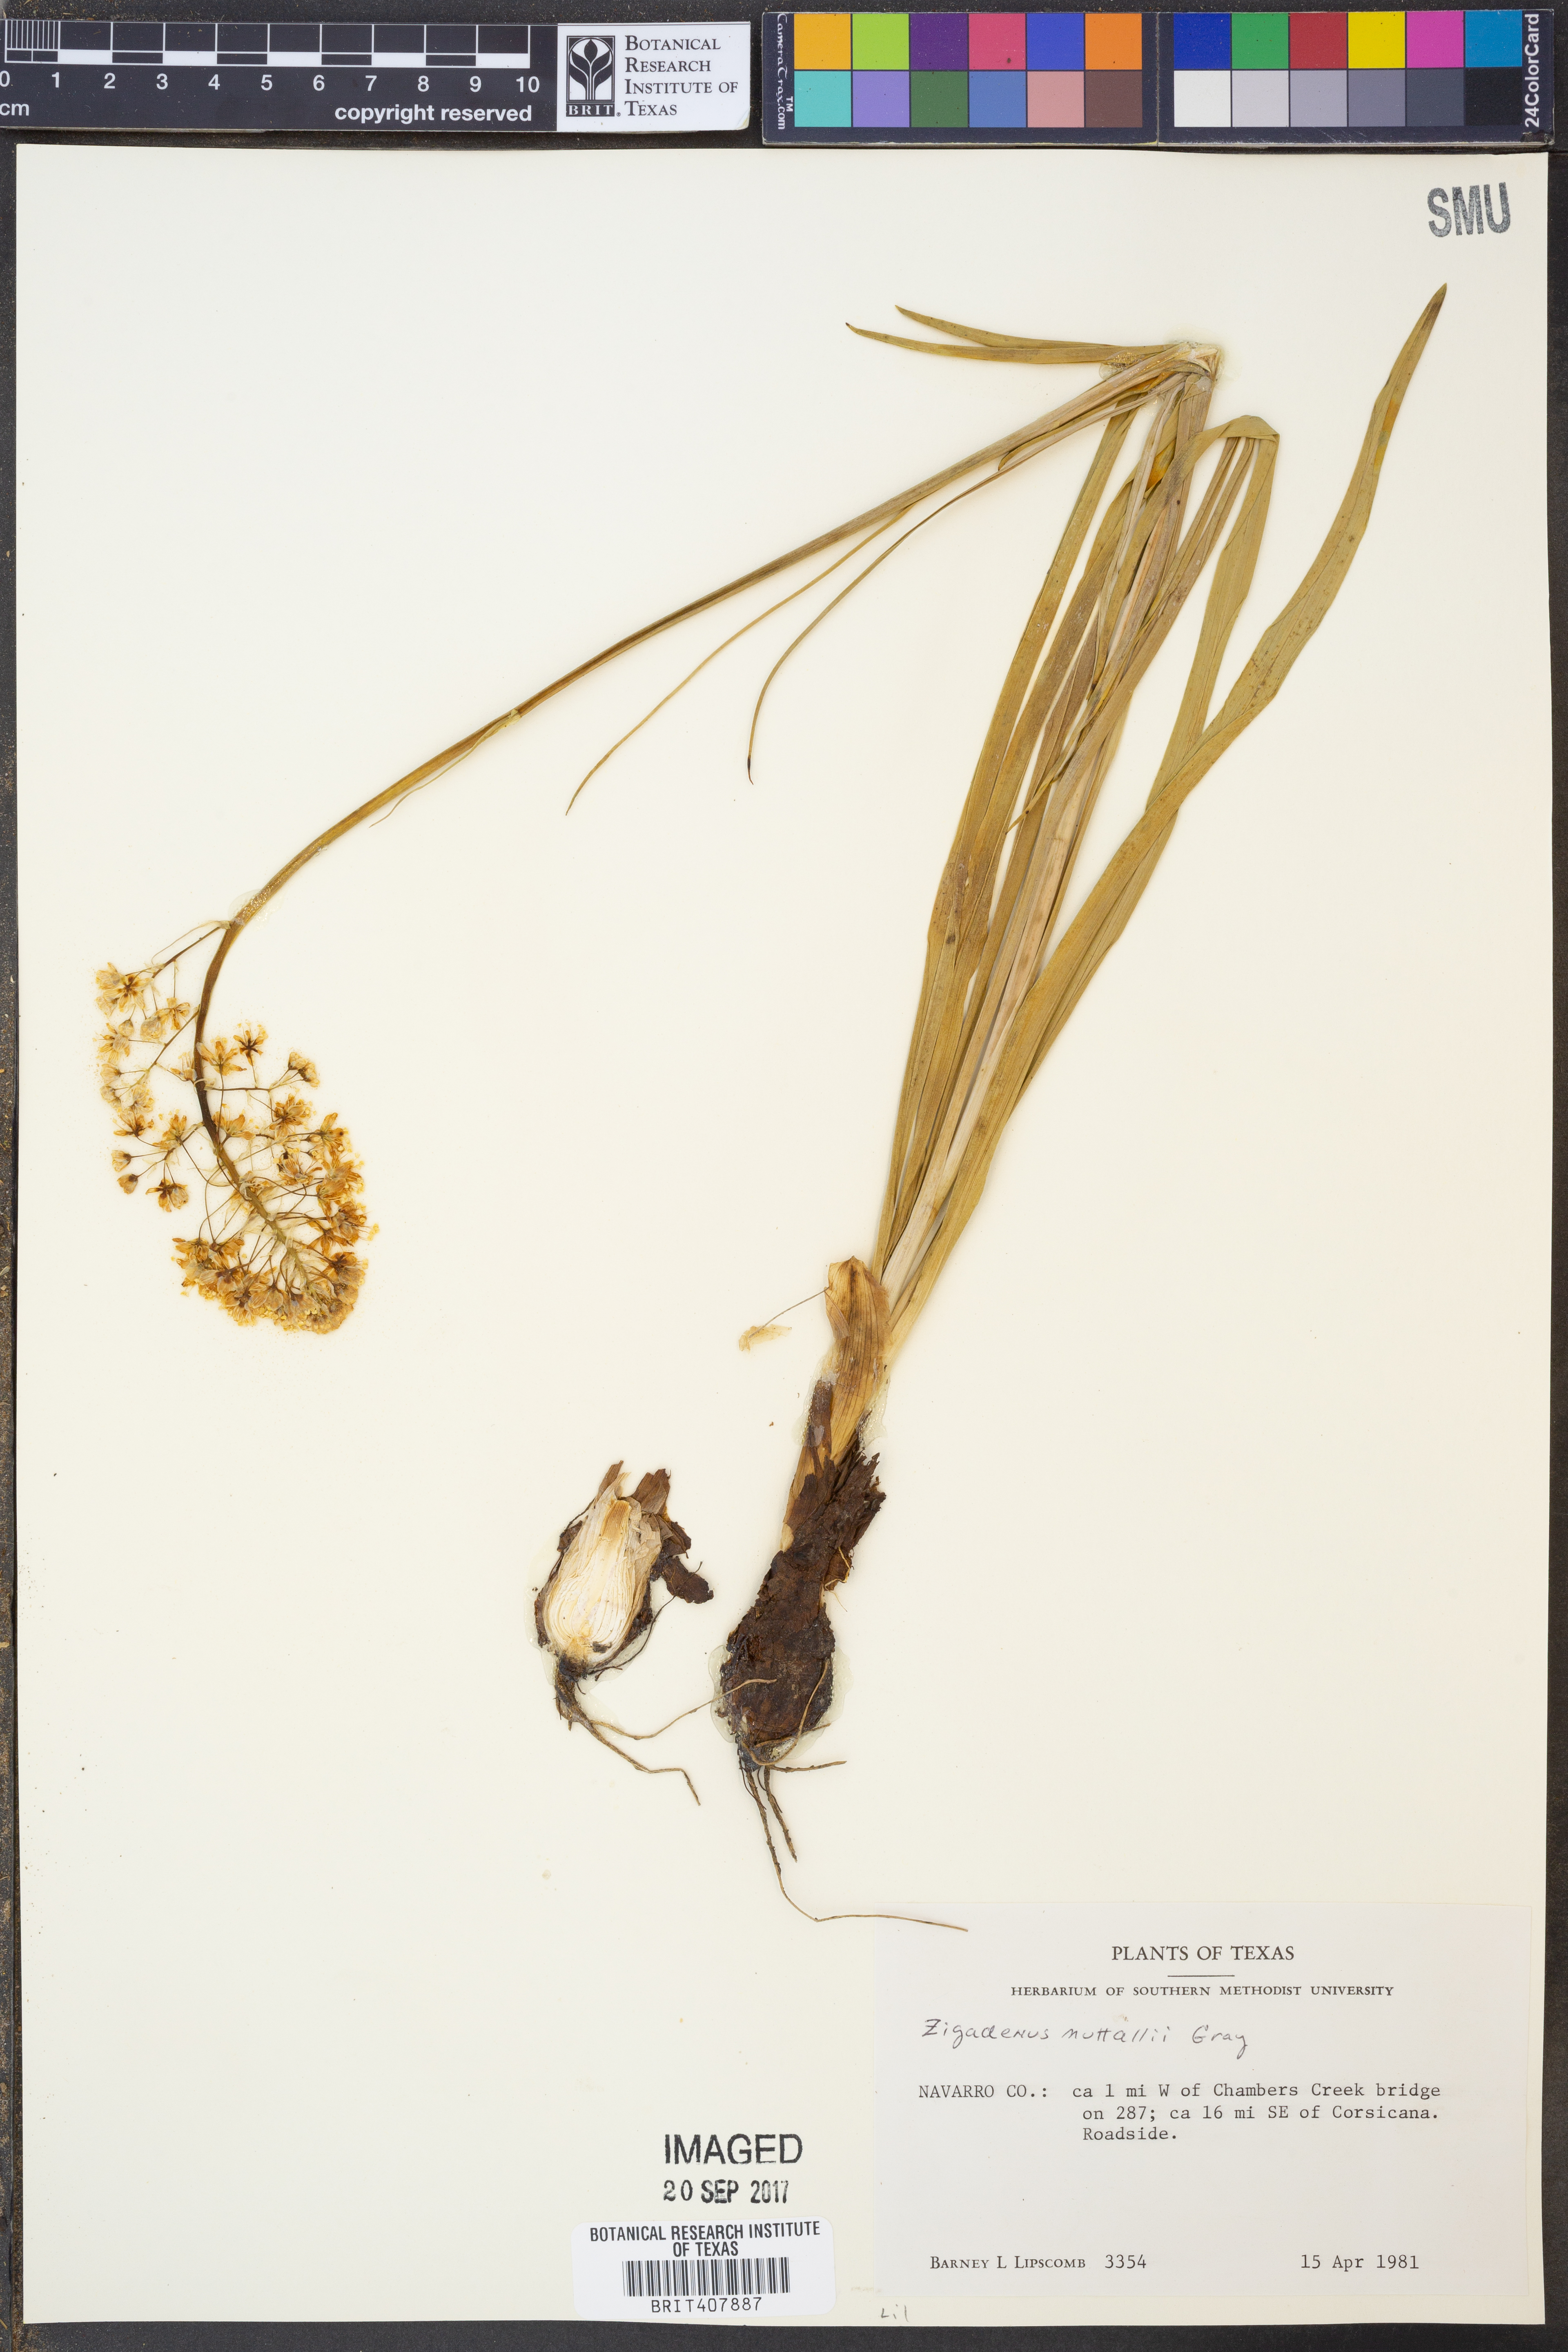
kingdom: Plantae
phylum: Tracheophyta
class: Liliopsida
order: Liliales
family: Melanthiaceae
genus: Toxicoscordion
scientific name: Toxicoscordion nuttallii
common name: Poison sego
